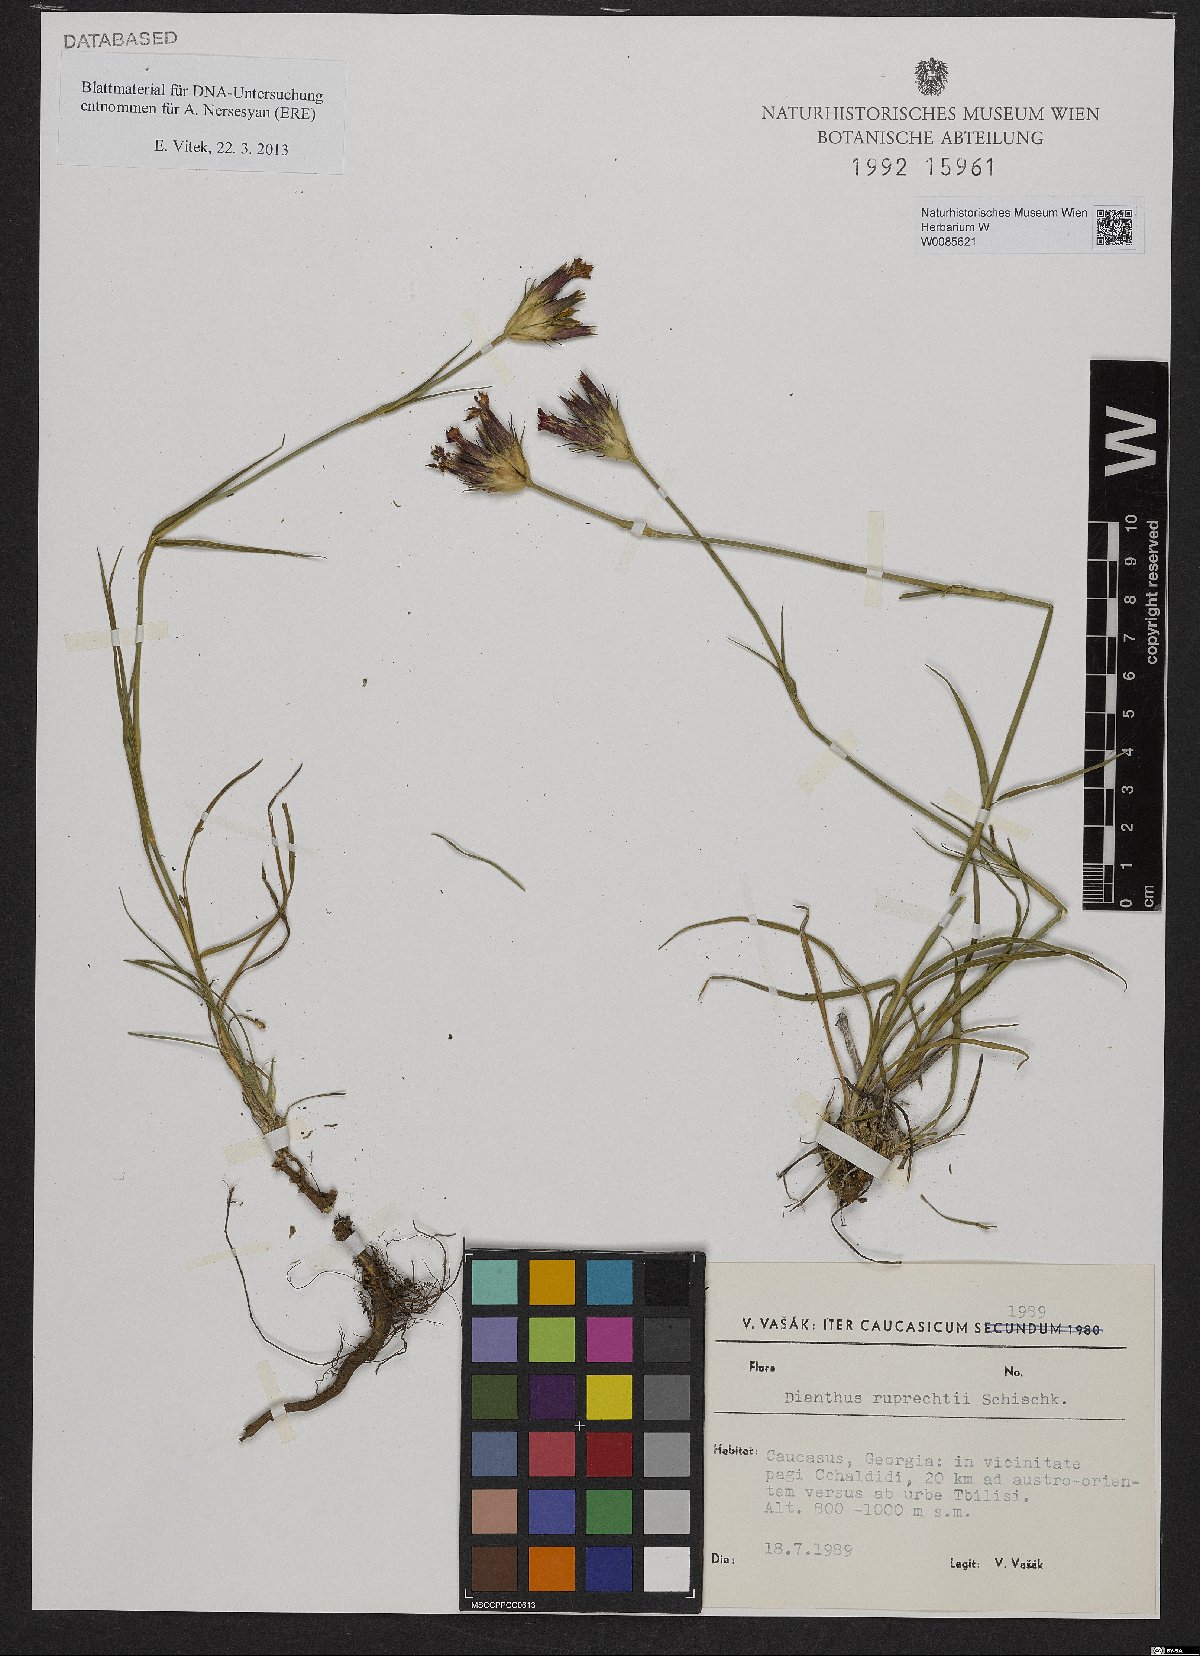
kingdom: Plantae
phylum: Tracheophyta
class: Magnoliopsida
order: Caryophyllales
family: Caryophyllaceae
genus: Dianthus
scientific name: Dianthus ruprechtii
